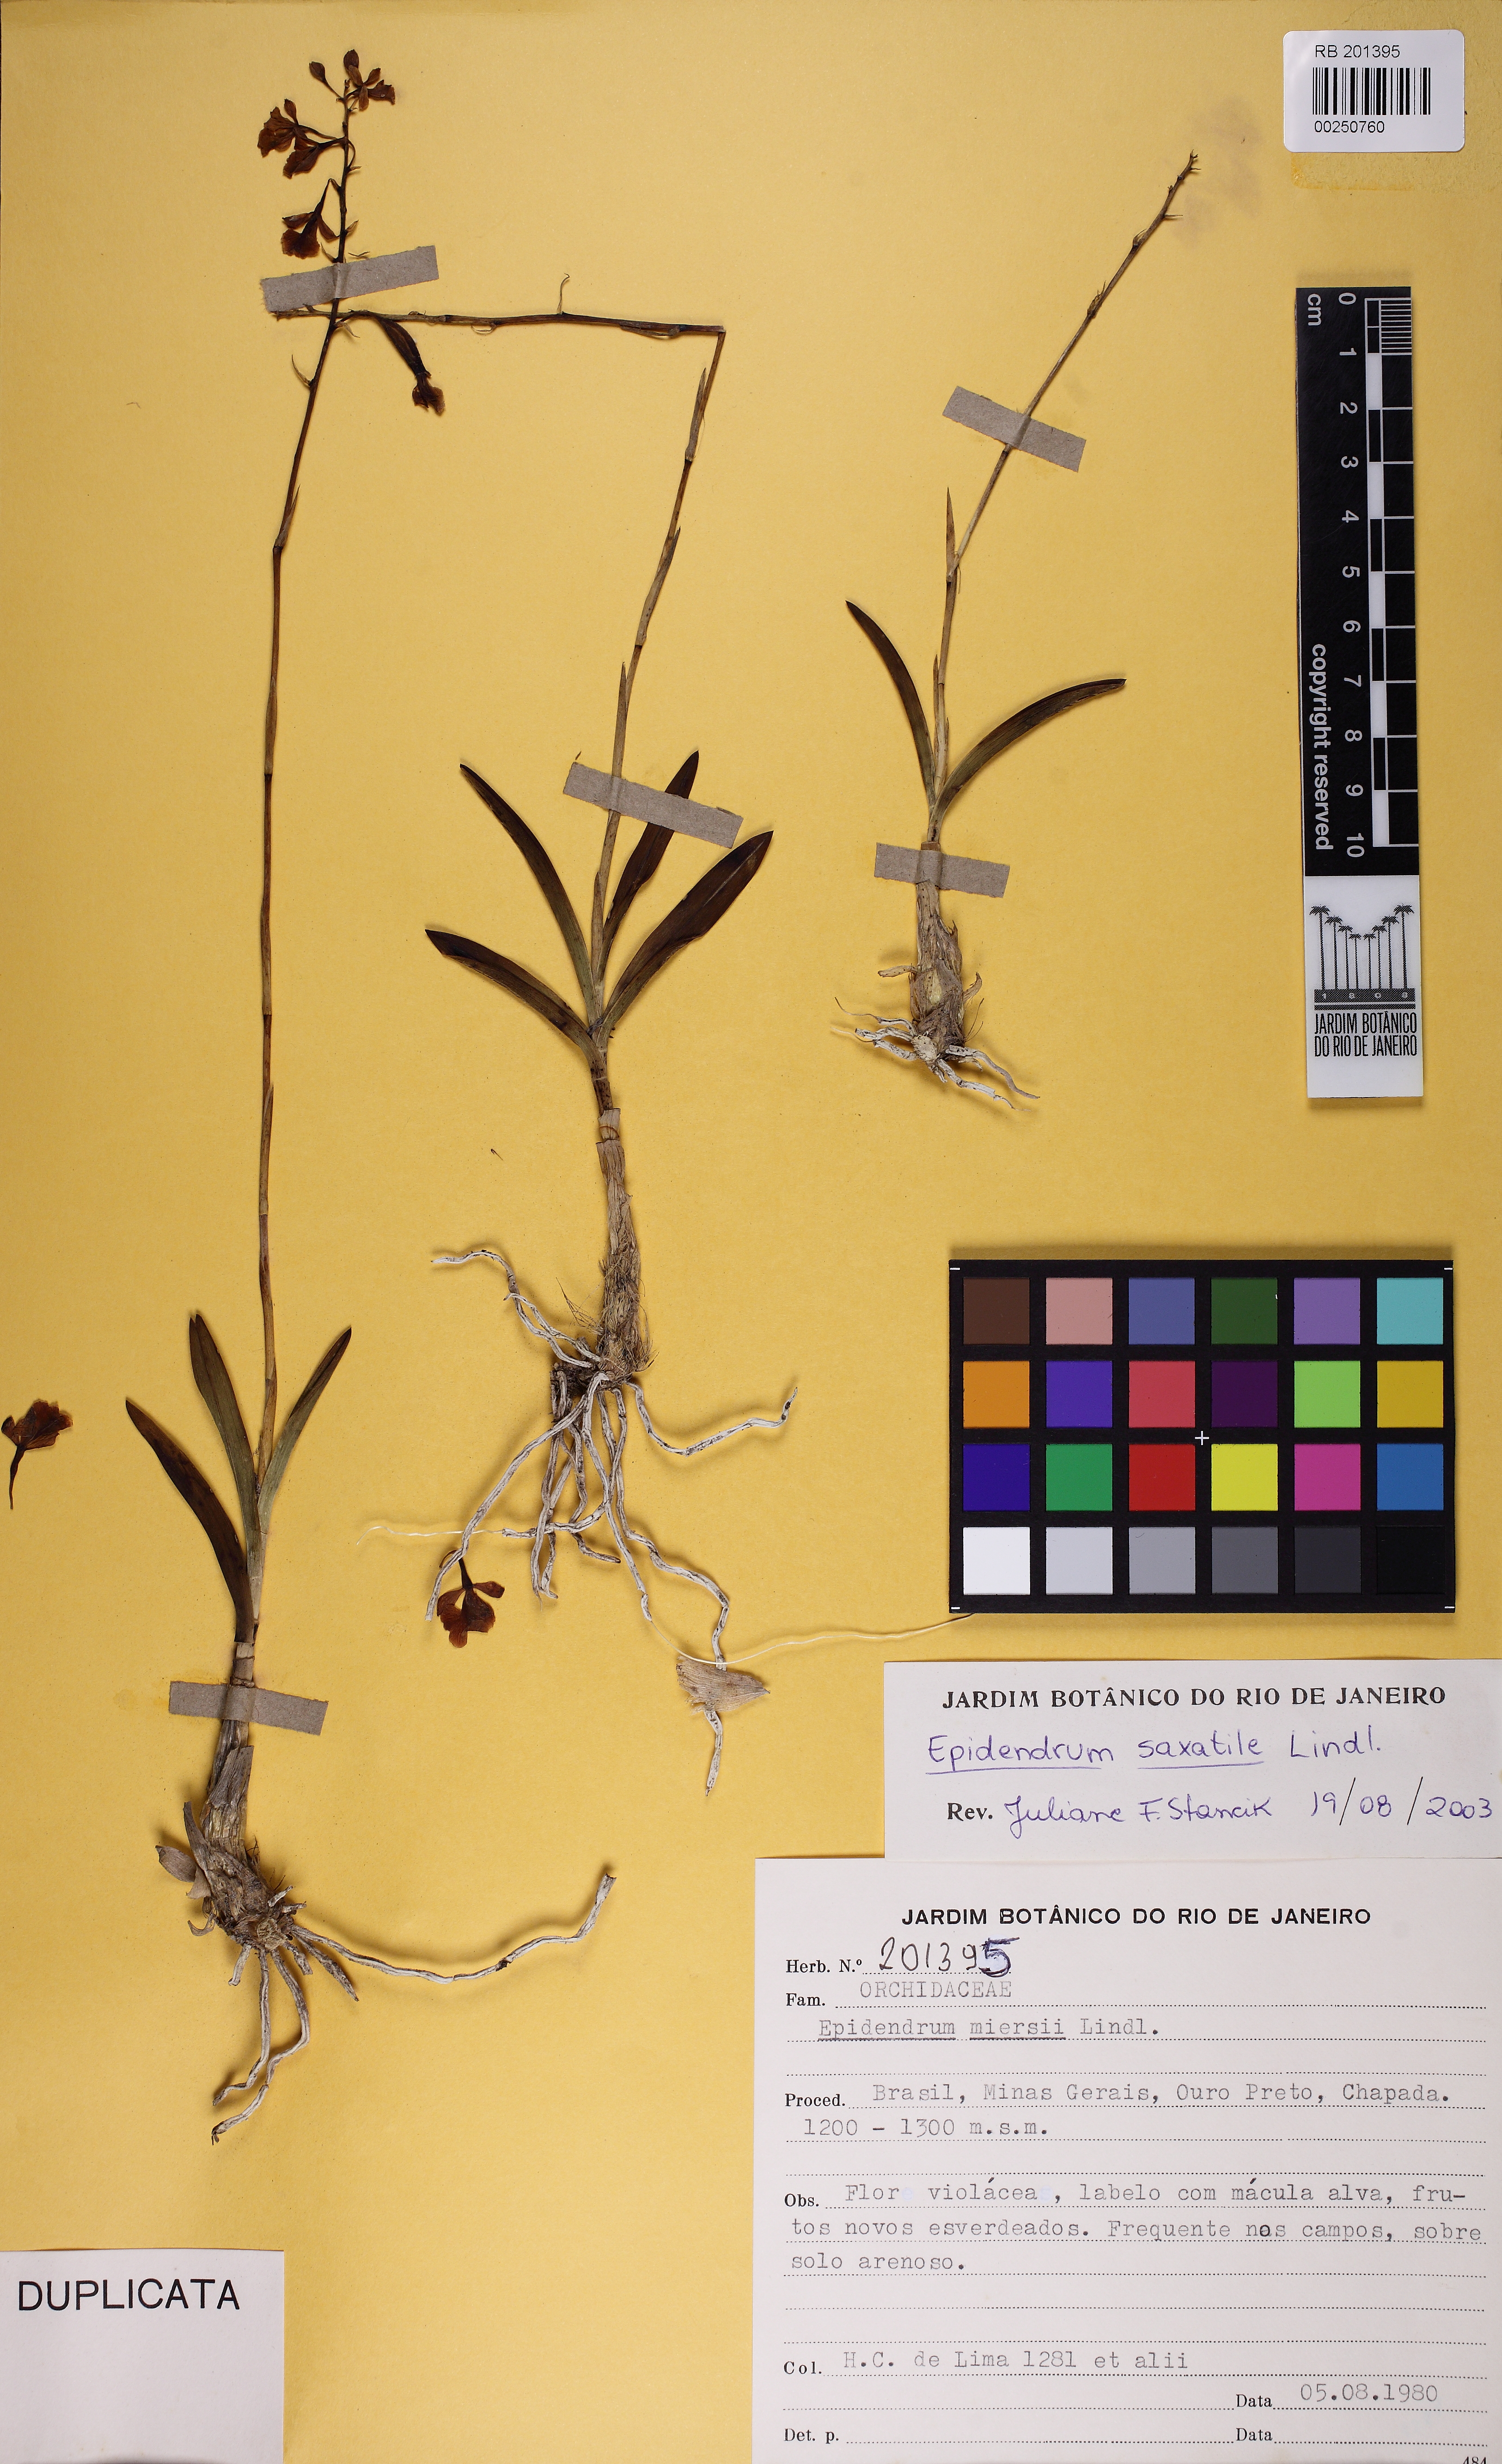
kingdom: Plantae
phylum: Tracheophyta
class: Liliopsida
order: Asparagales
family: Orchidaceae
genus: Epidendrum
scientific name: Epidendrum campestre
